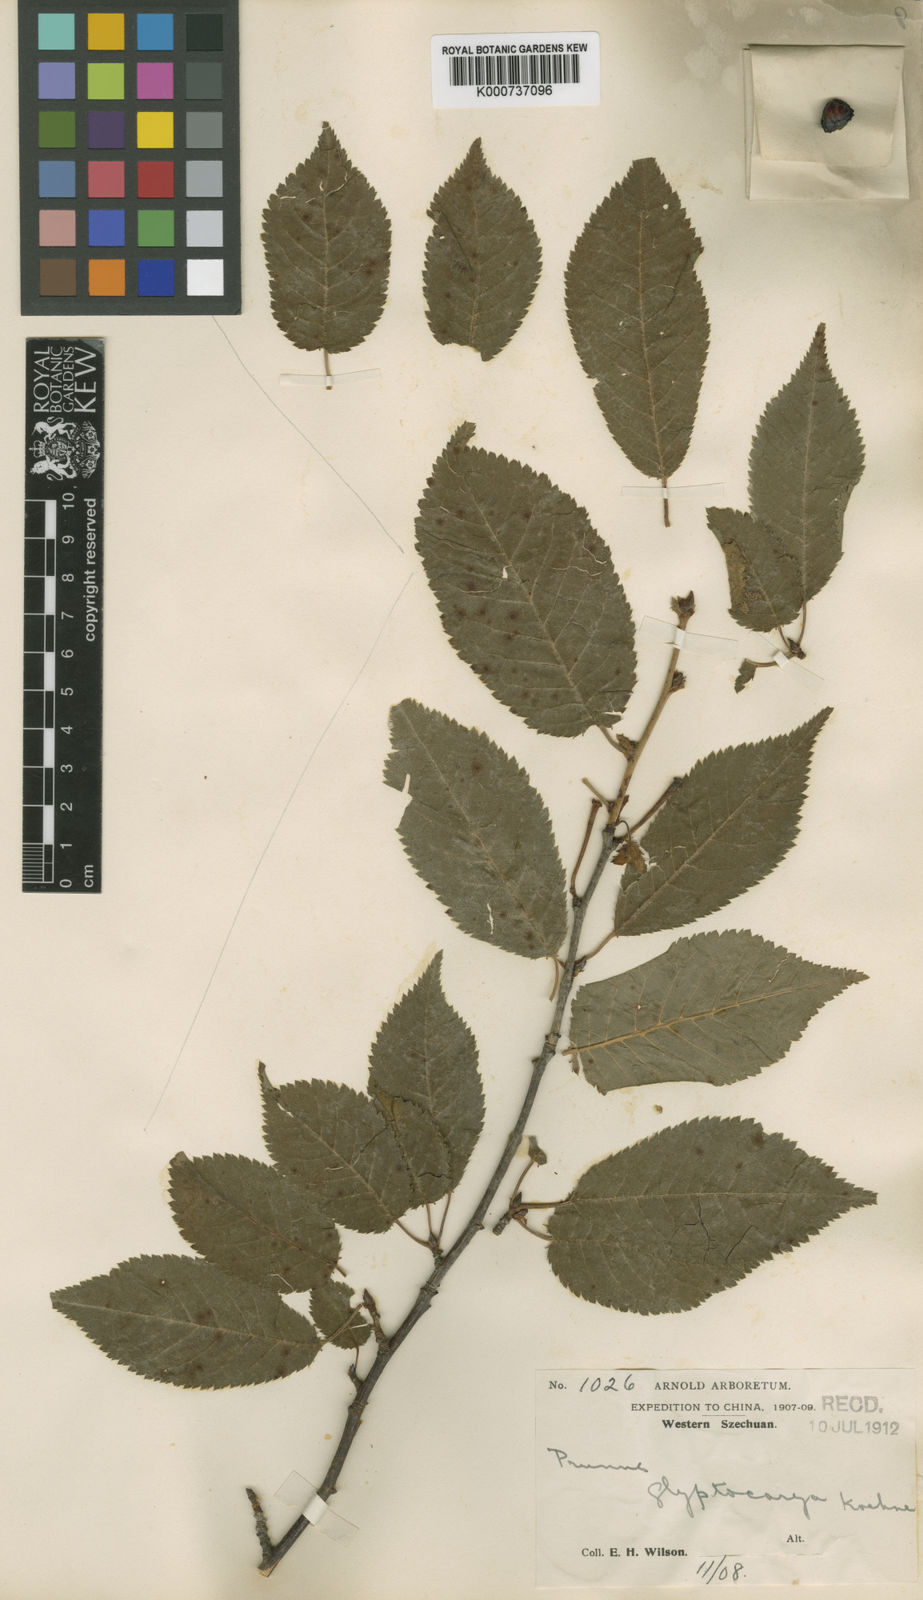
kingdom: Plantae
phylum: Tracheophyta
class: Magnoliopsida
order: Rosales
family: Rosaceae
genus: Prunus
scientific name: Prunus trichostoma
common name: Ribbed cherry
